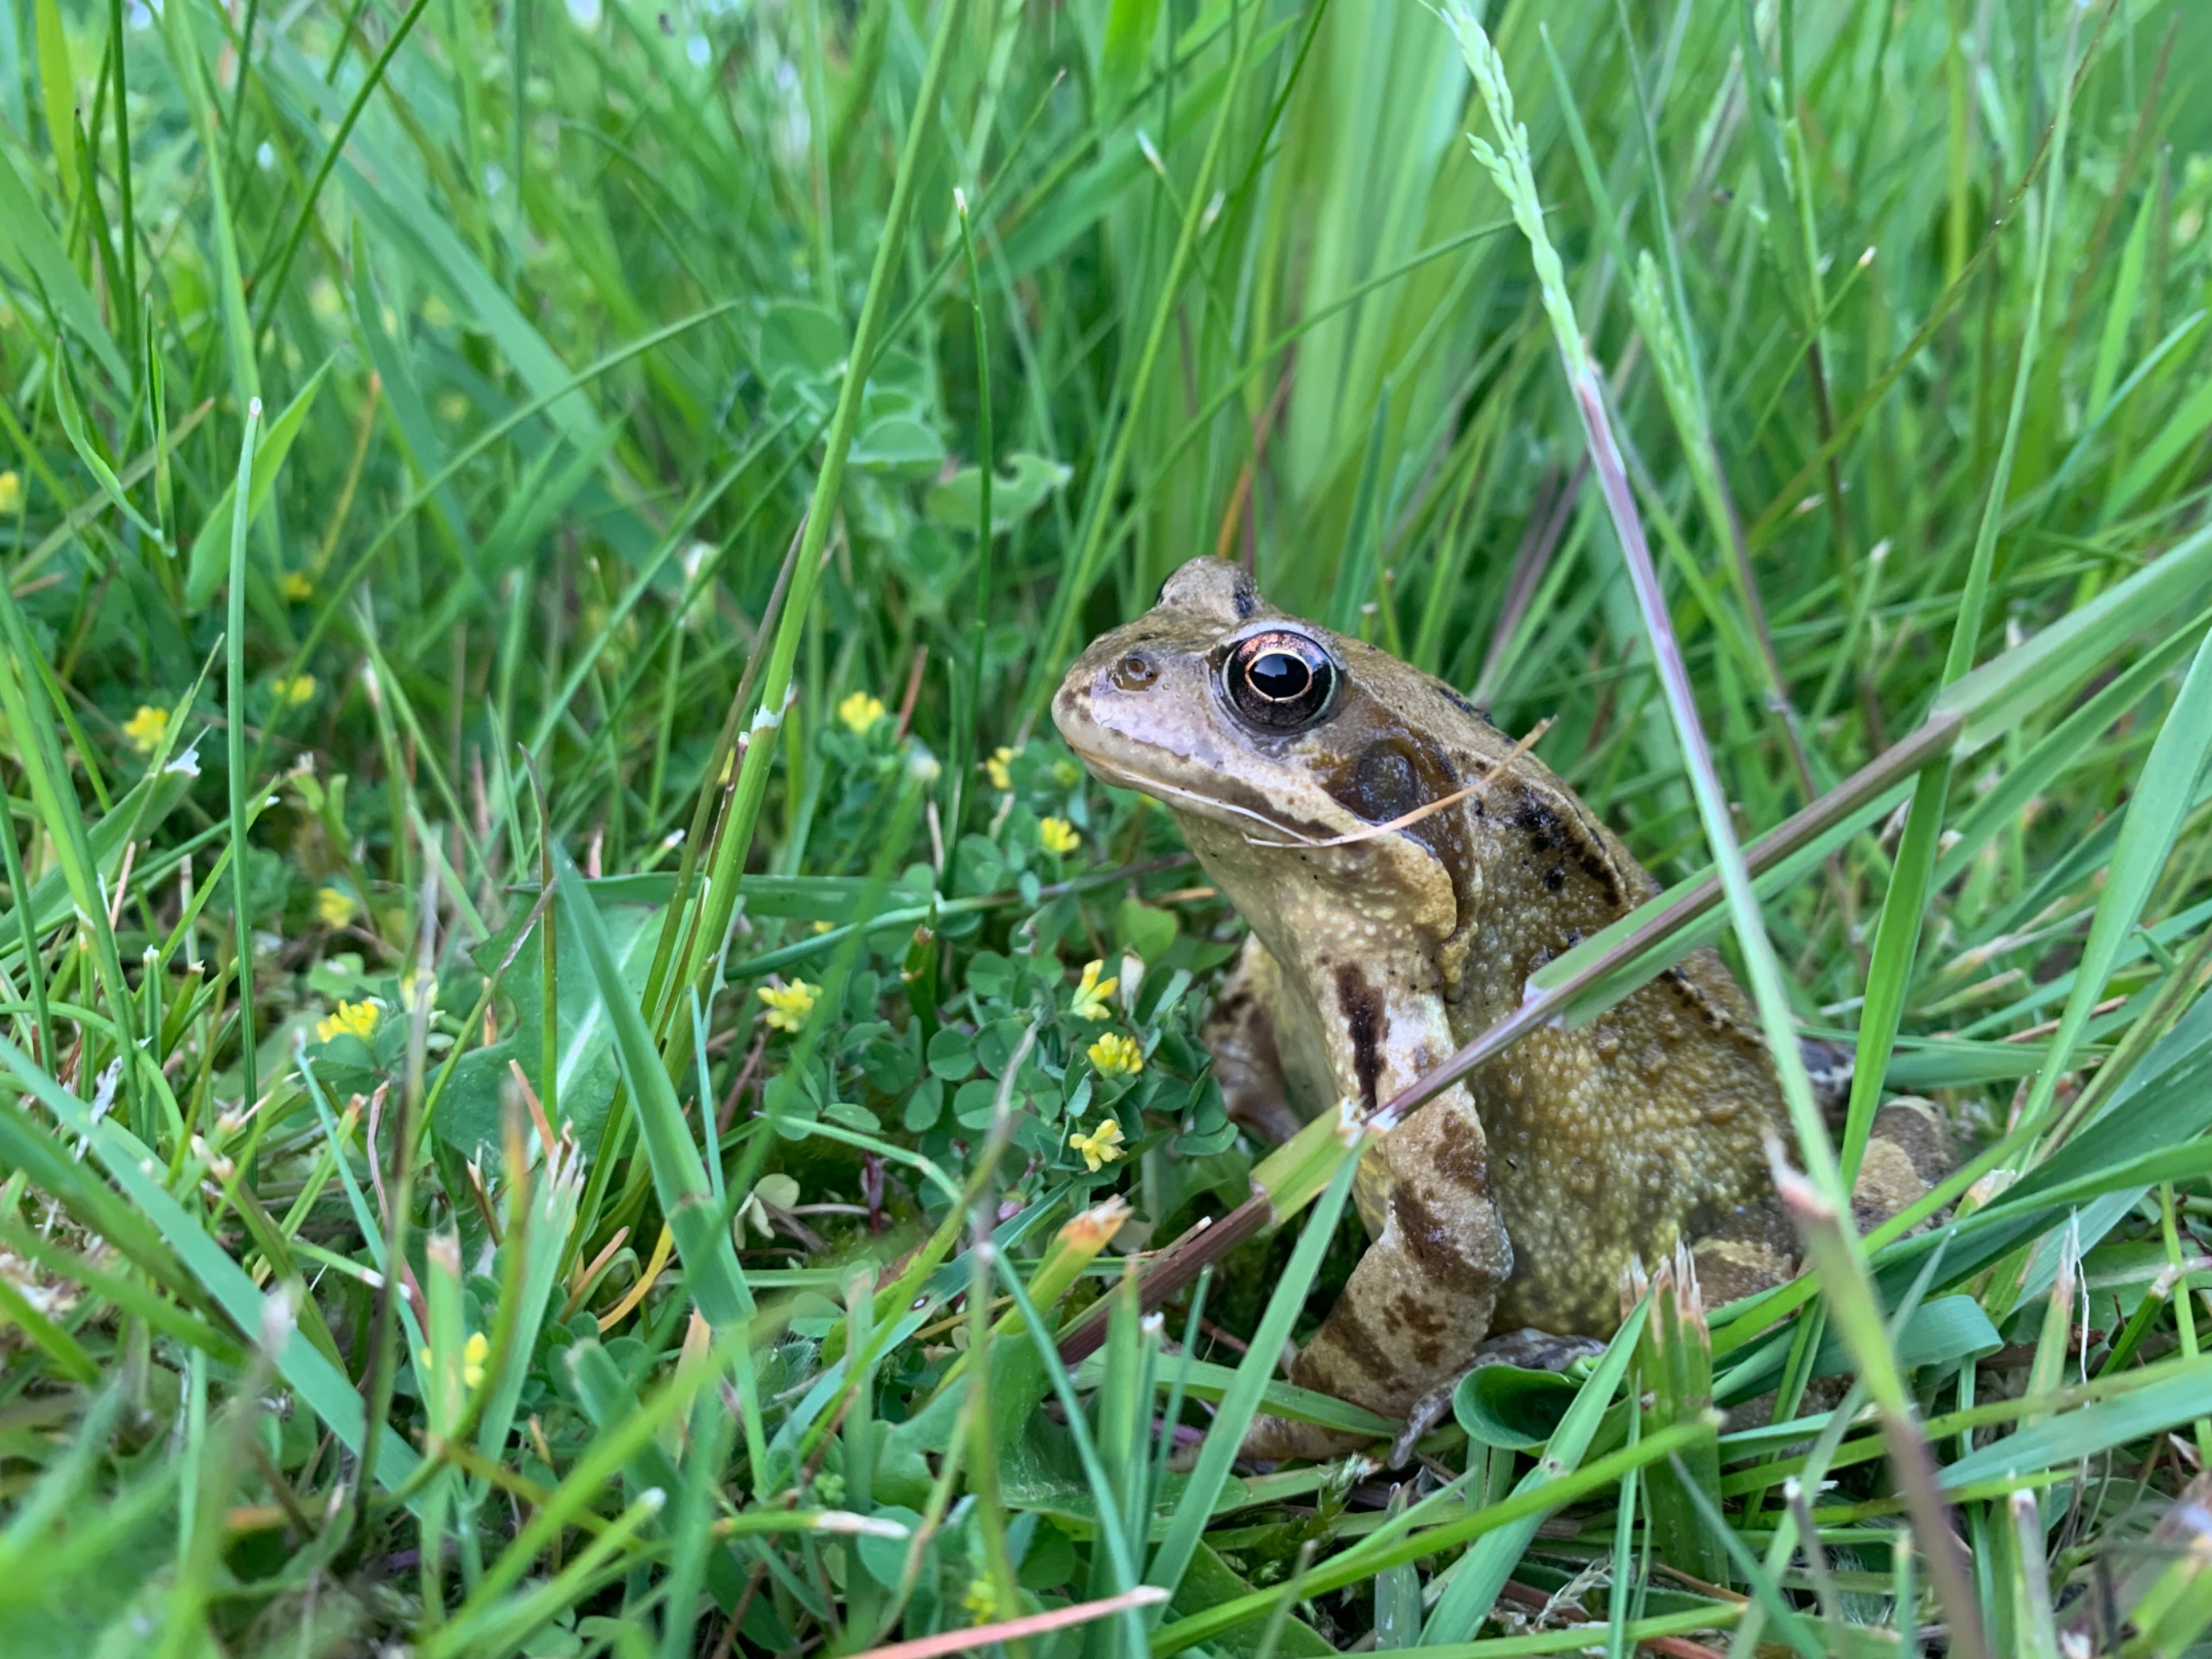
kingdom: Animalia
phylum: Chordata
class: Amphibia
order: Anura
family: Ranidae
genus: Rana
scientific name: Rana temporaria
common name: Butsnudet frø
